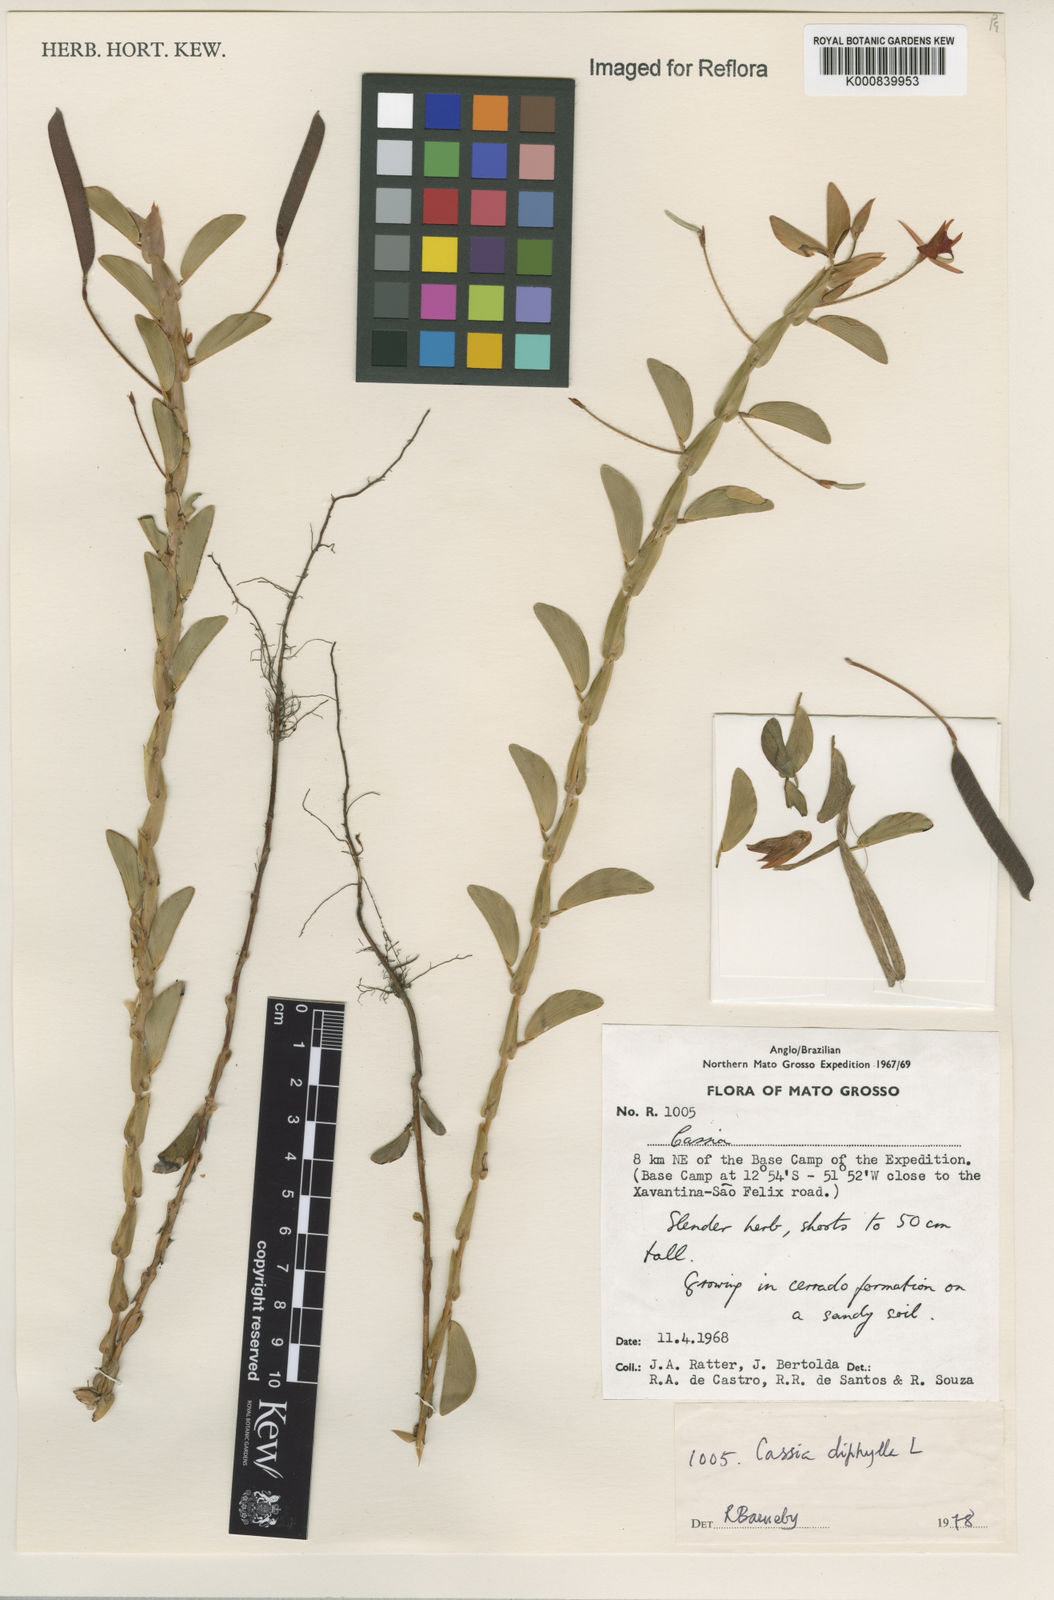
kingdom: Plantae
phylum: Tracheophyta
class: Magnoliopsida
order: Fabales
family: Fabaceae
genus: Chamaecrista
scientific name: Chamaecrista diphylla
